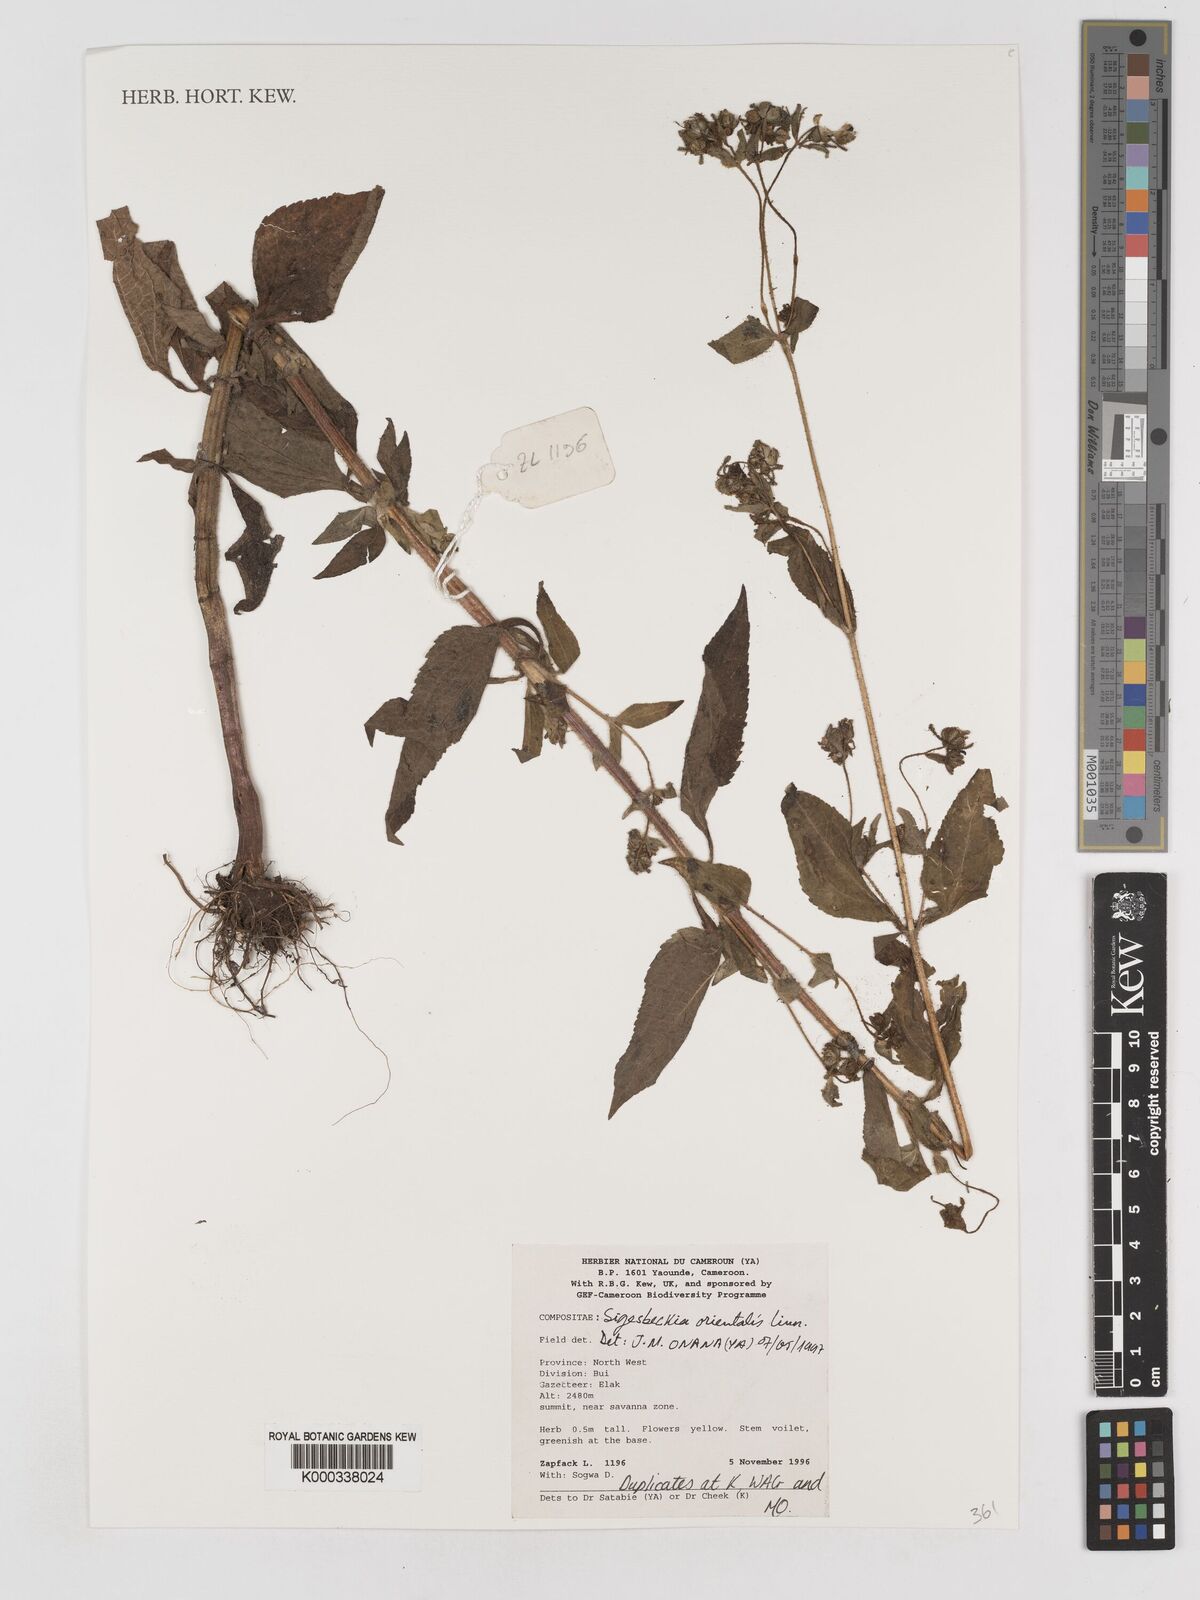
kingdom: Plantae
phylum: Tracheophyta
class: Magnoliopsida
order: Asterales
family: Asteraceae
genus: Sigesbeckia
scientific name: Sigesbeckia
